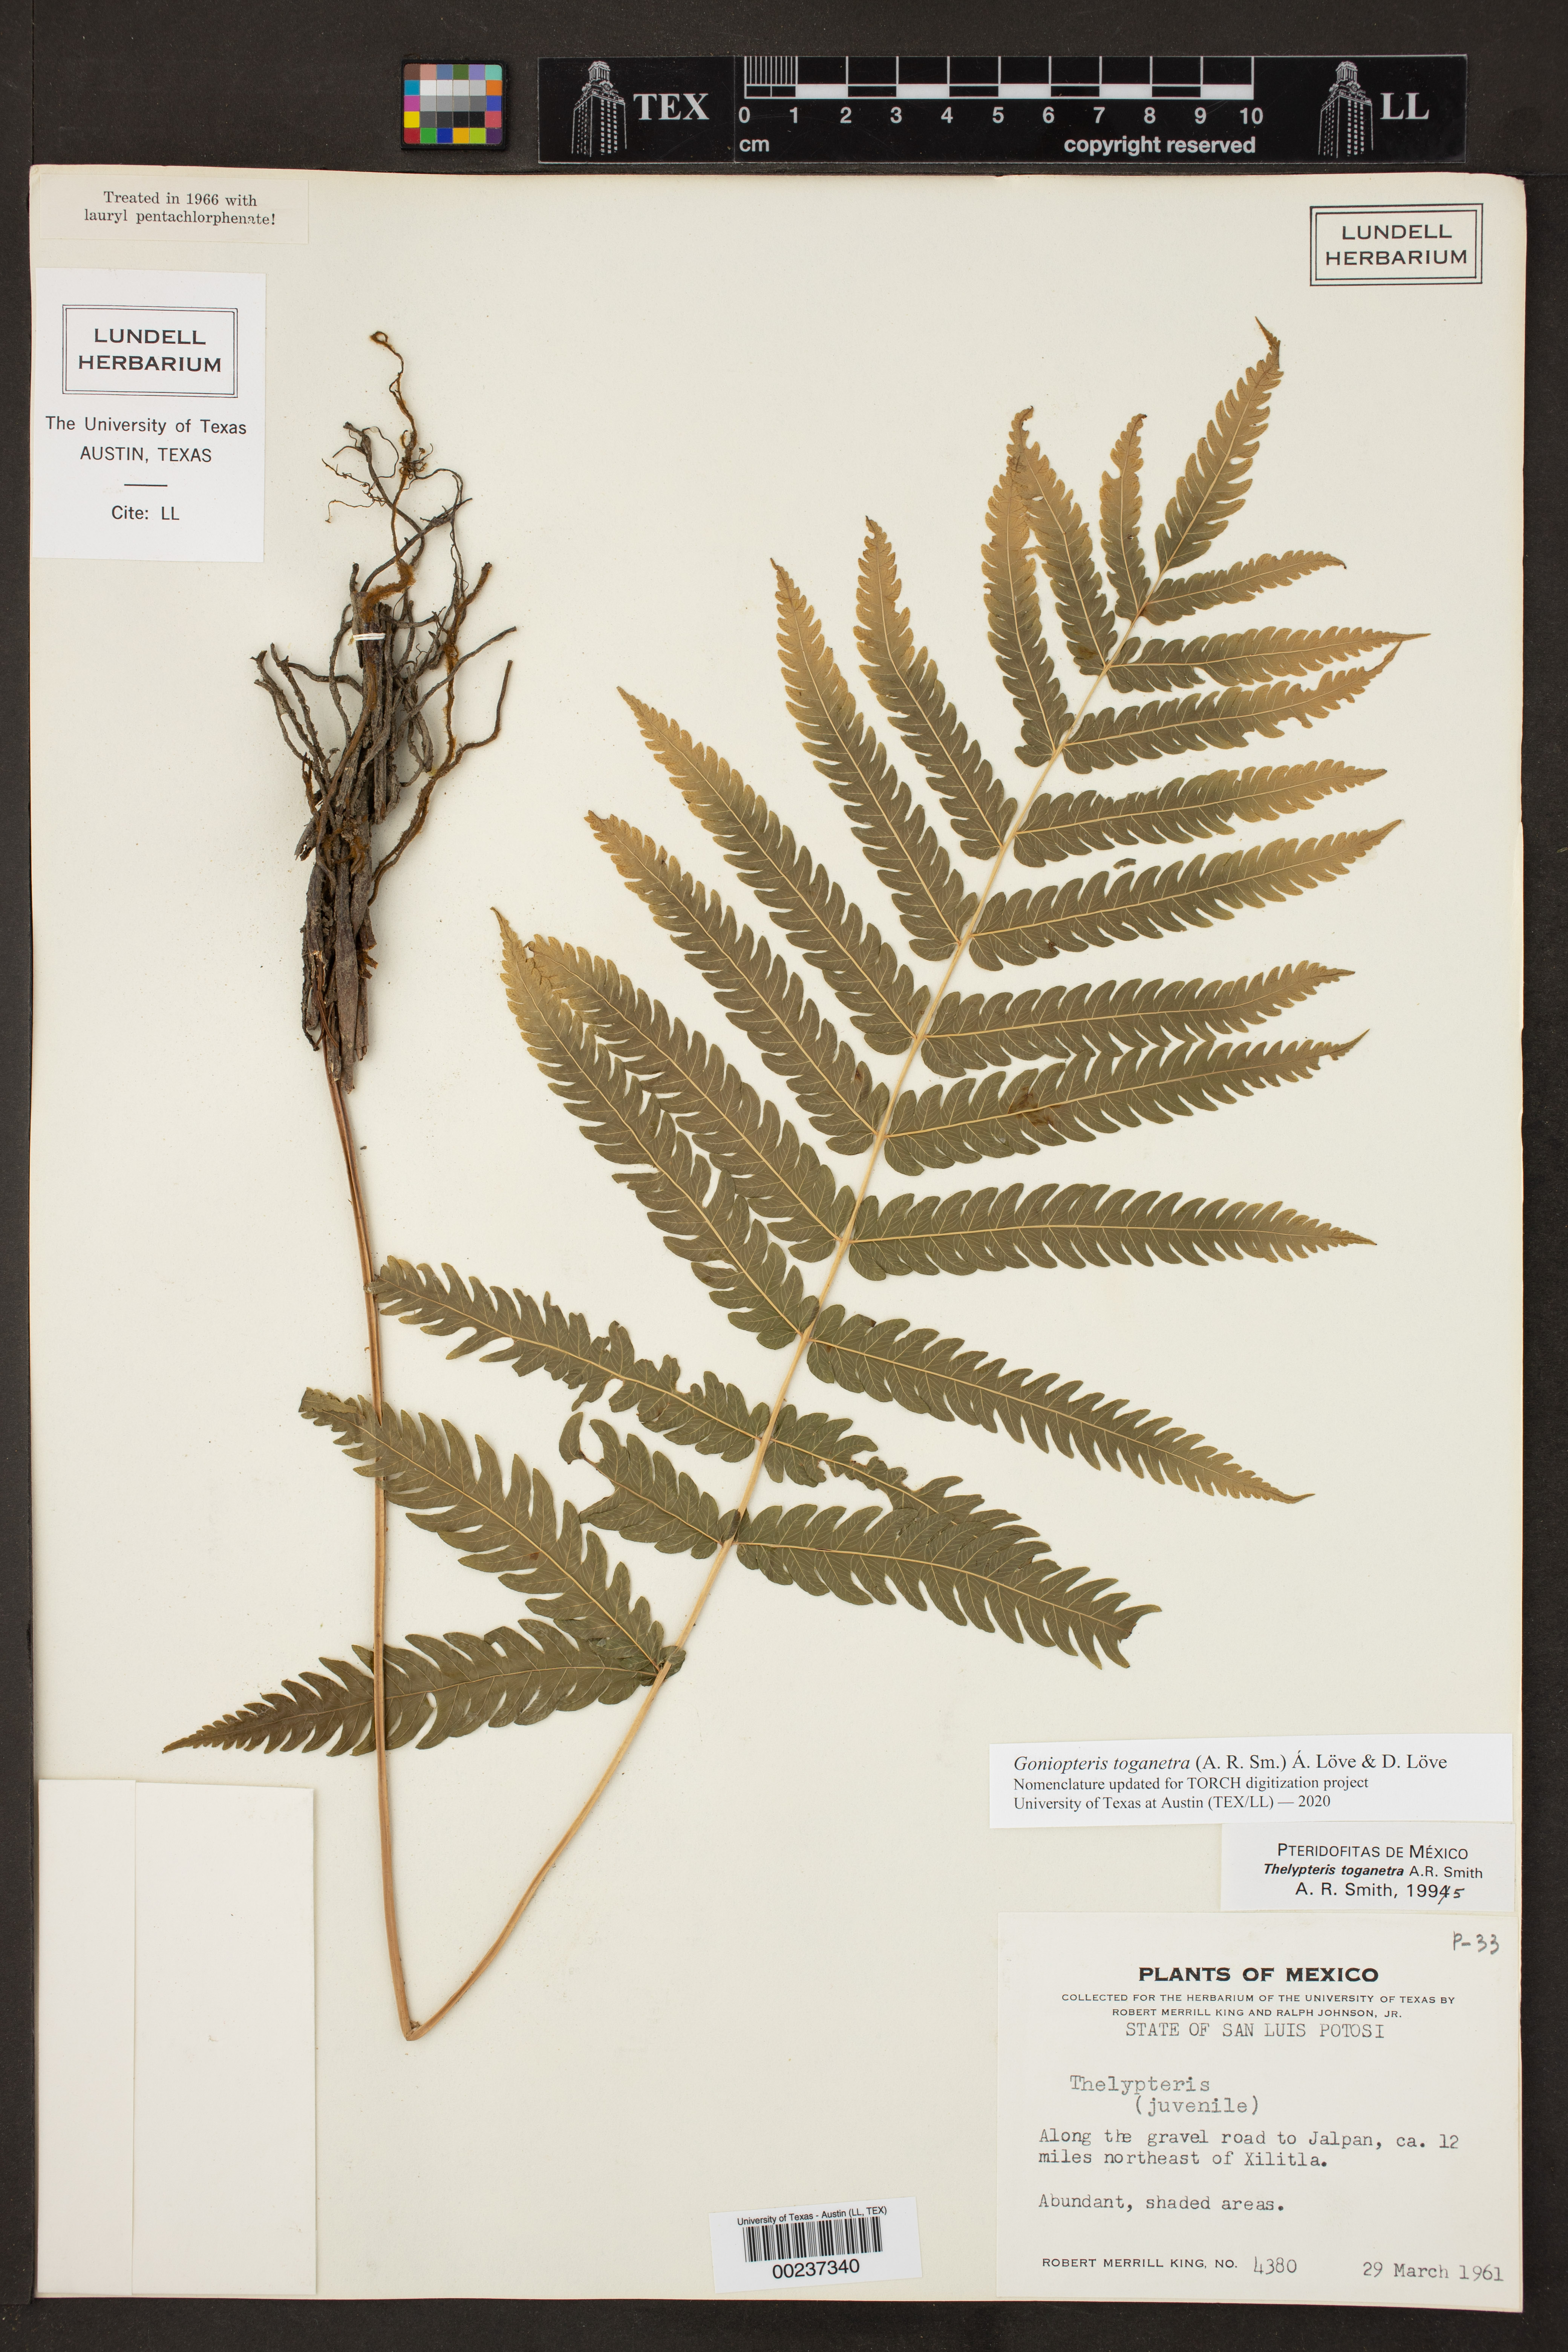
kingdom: Plantae
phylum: Tracheophyta
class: Polypodiopsida
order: Polypodiales
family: Thelypteridaceae
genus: Goniopteris
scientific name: Goniopteris toganetra
